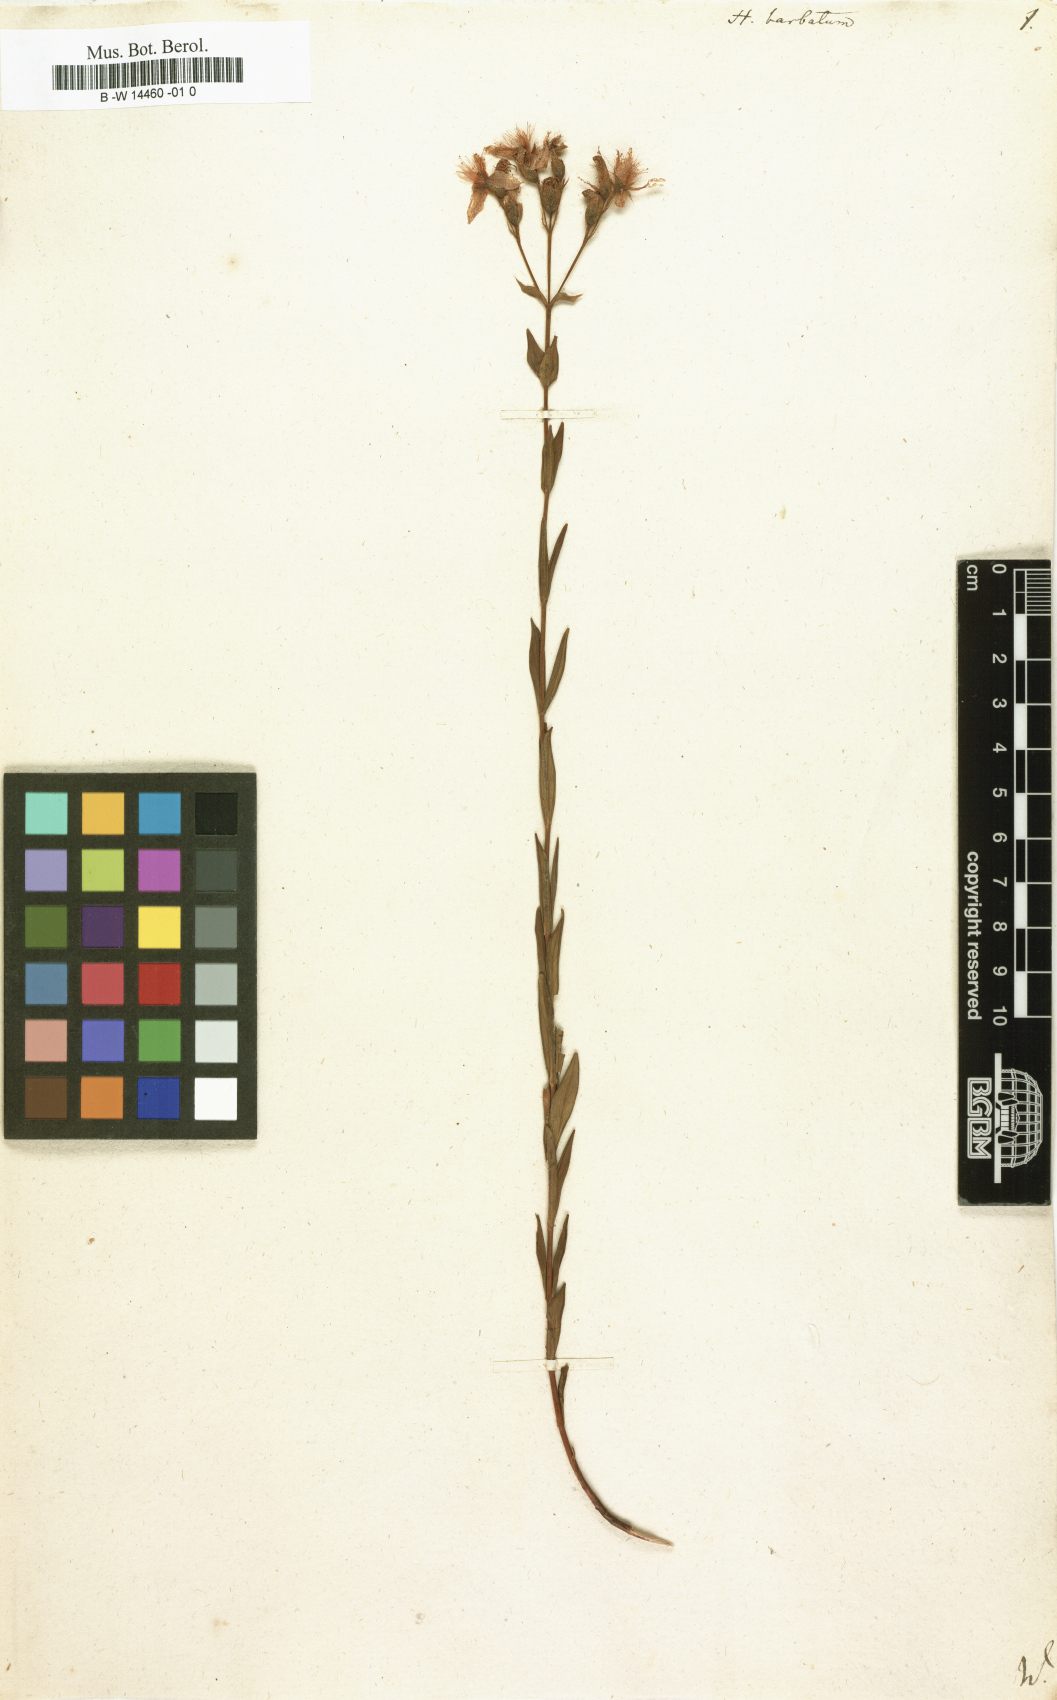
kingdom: Plantae
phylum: Tracheophyta
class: Magnoliopsida
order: Malpighiales
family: Hypericaceae
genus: Hypericum
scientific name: Hypericum barbatum
